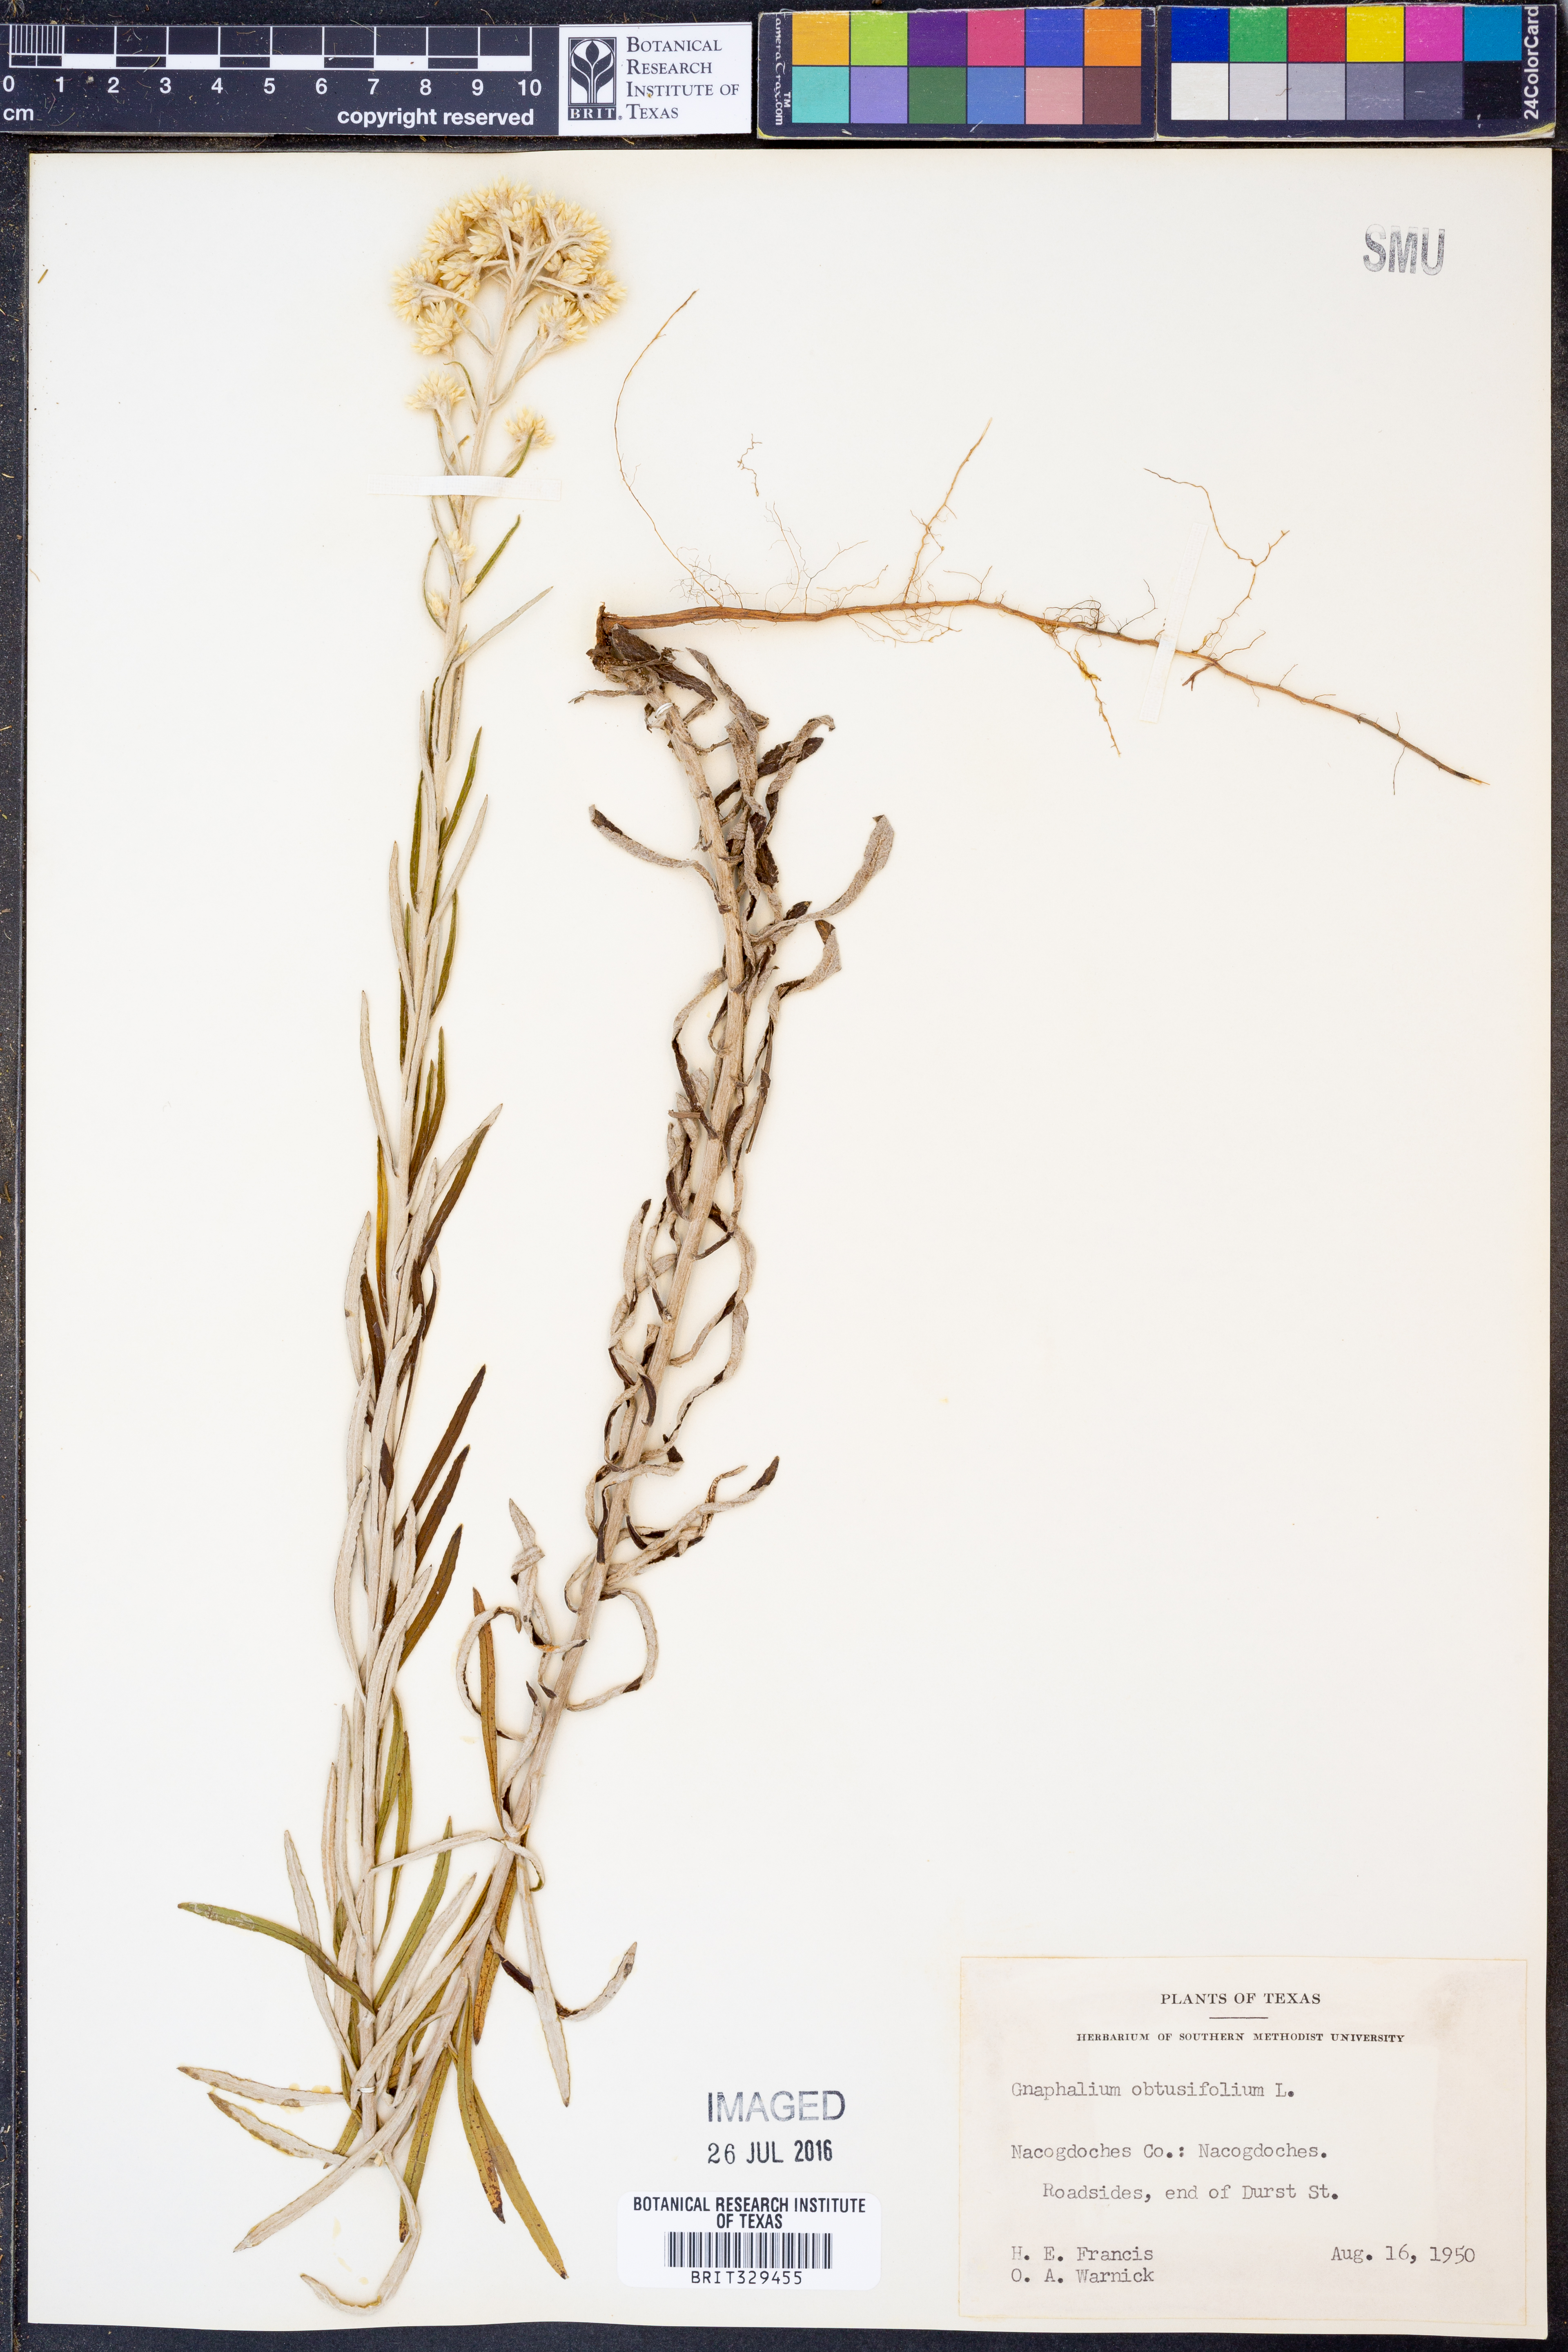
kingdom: Plantae
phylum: Tracheophyta
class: Magnoliopsida
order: Asterales
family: Asteraceae
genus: Pseudognaphalium
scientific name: Pseudognaphalium obtusifolium
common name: Eastern rabbit-tobacco
